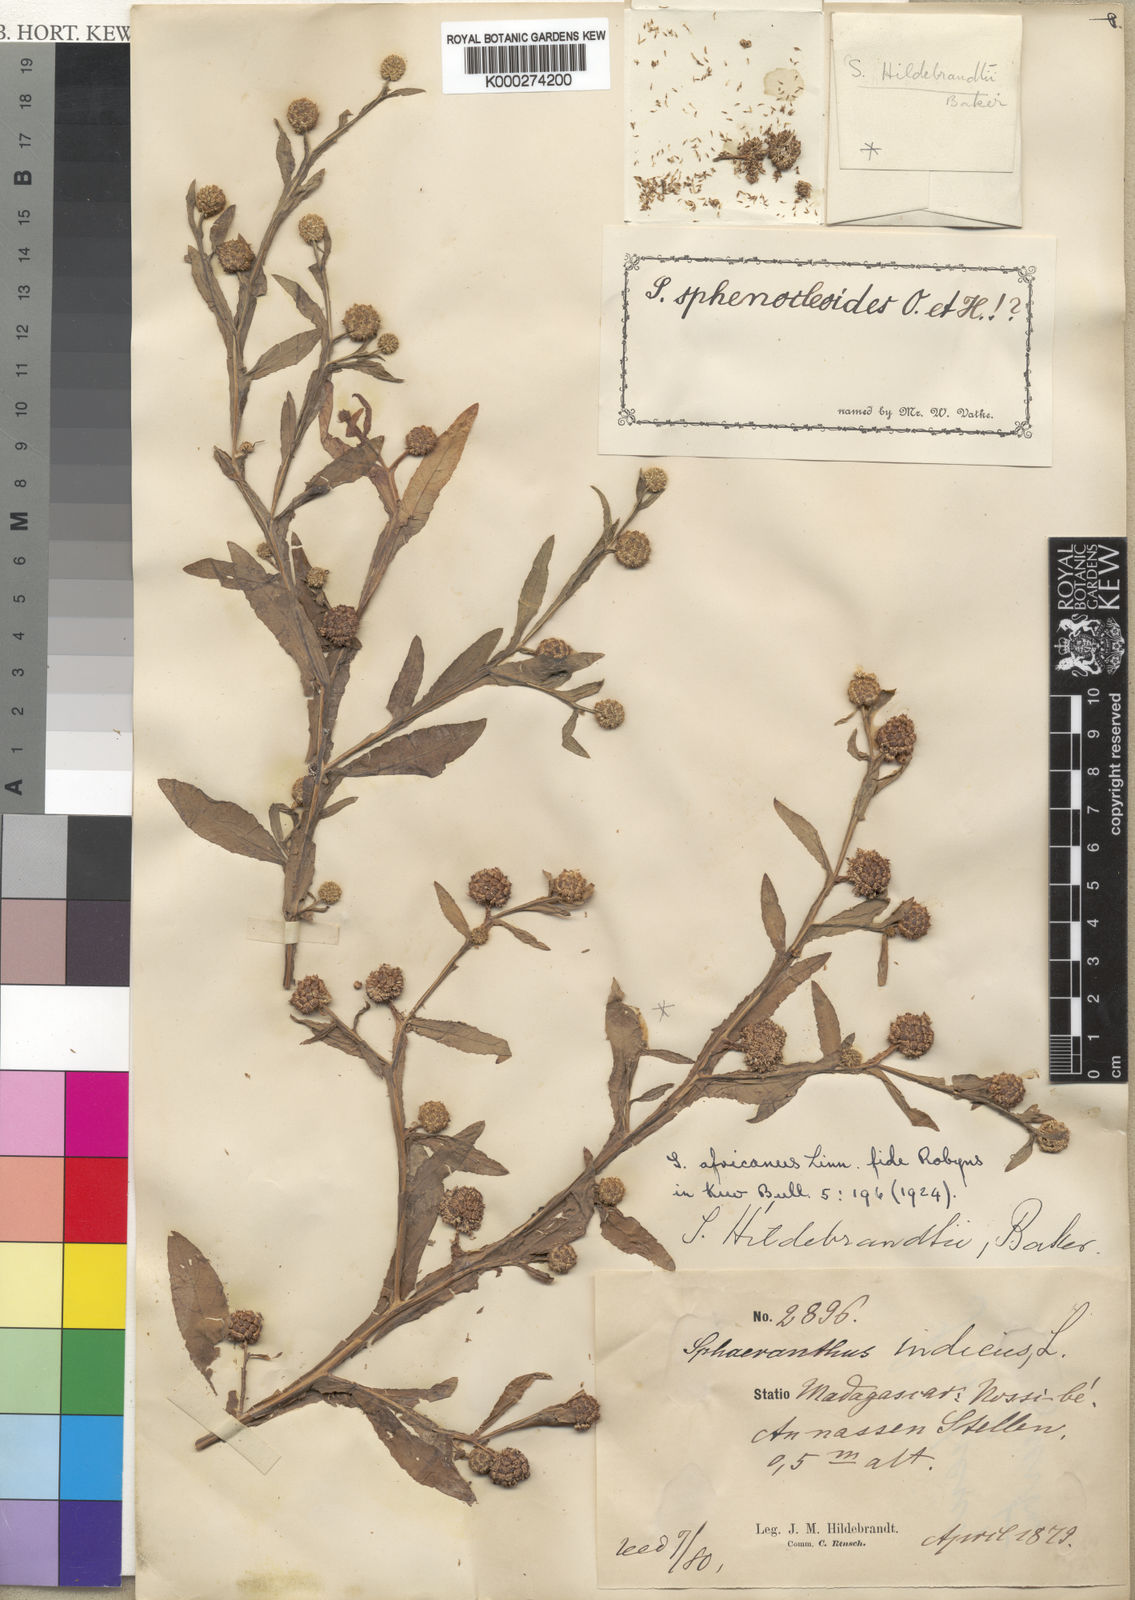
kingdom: Plantae
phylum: Tracheophyta
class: Magnoliopsida
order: Asterales
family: Asteraceae
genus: Sphaeranthus
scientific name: Sphaeranthus africanus
